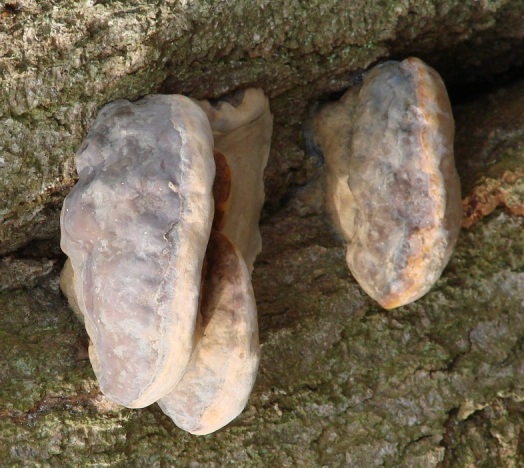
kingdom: Fungi
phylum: Basidiomycota
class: Agaricomycetes
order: Polyporales
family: Polyporaceae
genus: Ganoderma
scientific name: Ganoderma pfeifferi
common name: kobberrød lakporesvamp
